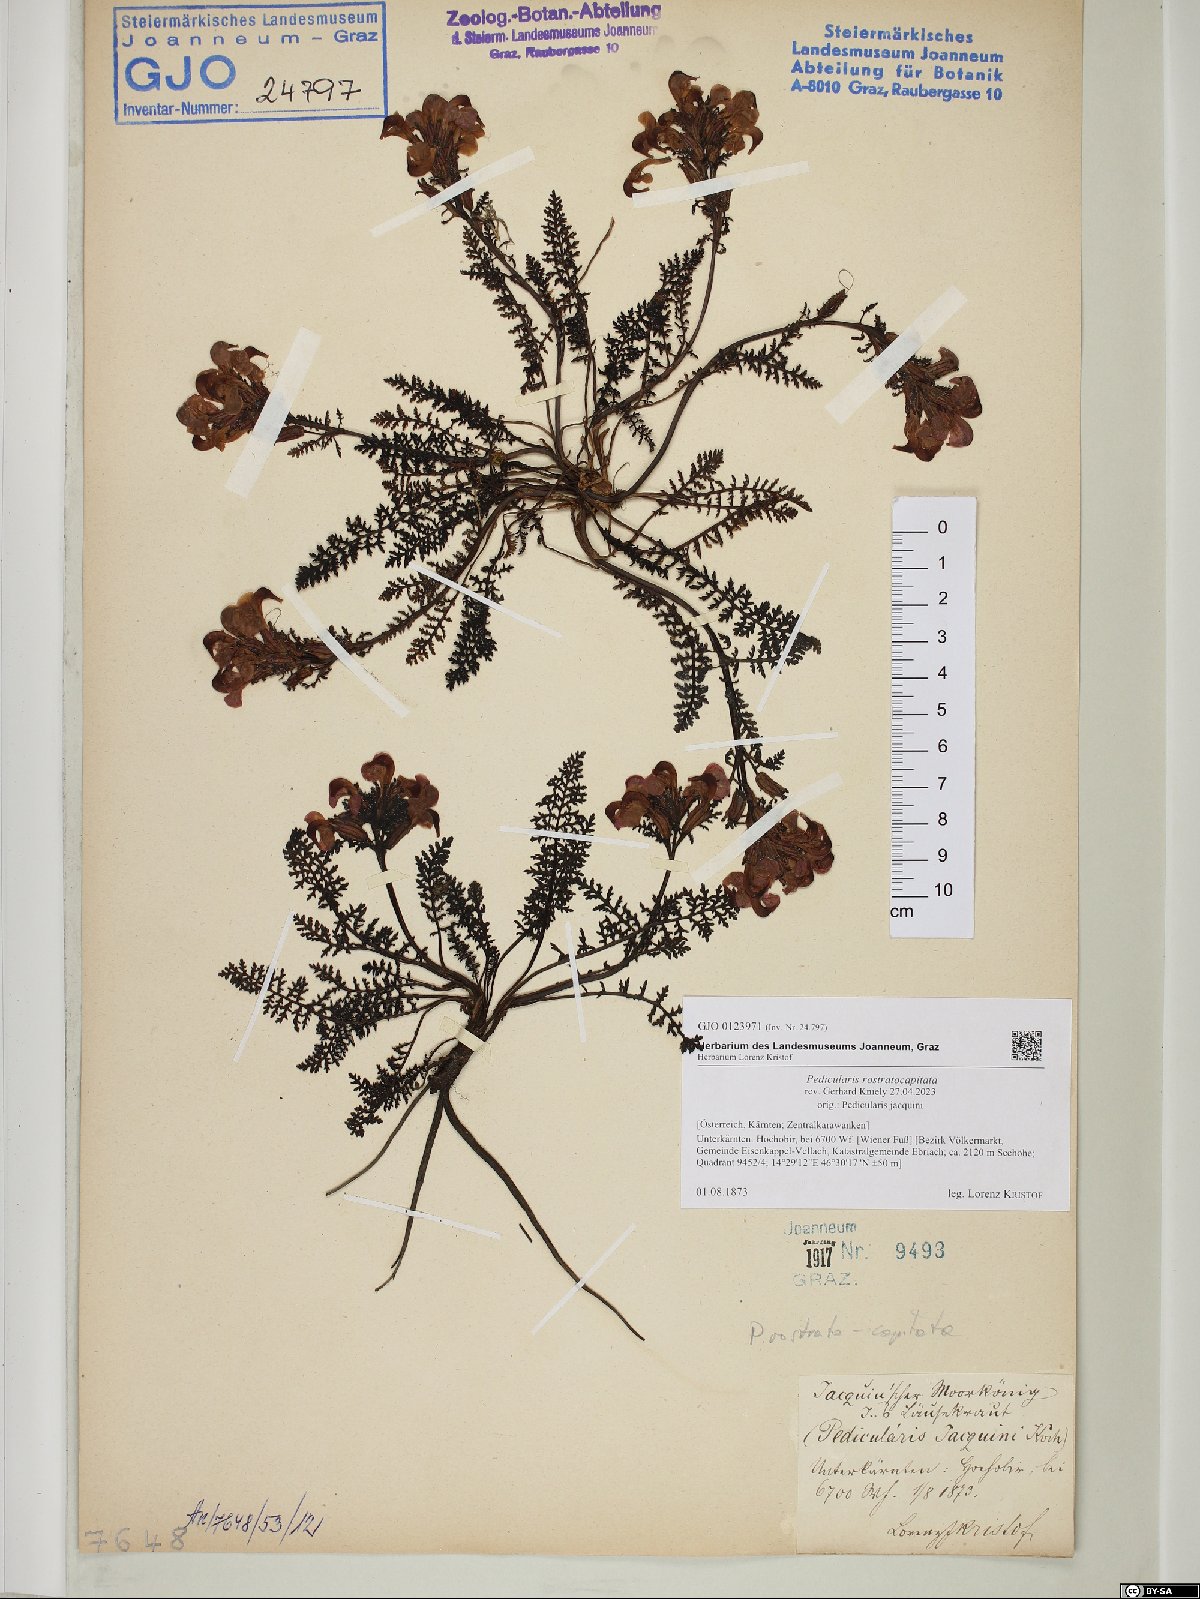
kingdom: Plantae
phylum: Tracheophyta
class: Magnoliopsida
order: Lamiales
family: Orobanchaceae
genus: Pedicularis
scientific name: Pedicularis rostratocapitata
